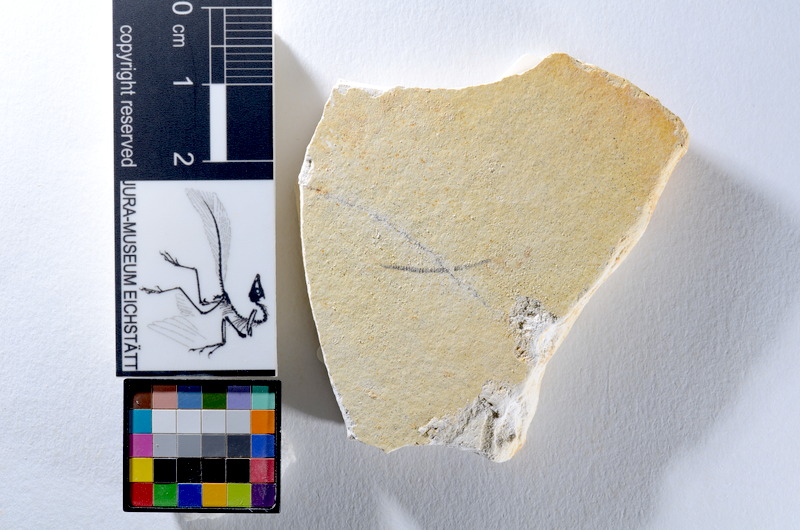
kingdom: Animalia
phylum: Chordata
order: Salmoniformes
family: Orthogonikleithridae
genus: Orthogonikleithrus
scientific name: Orthogonikleithrus hoelli
